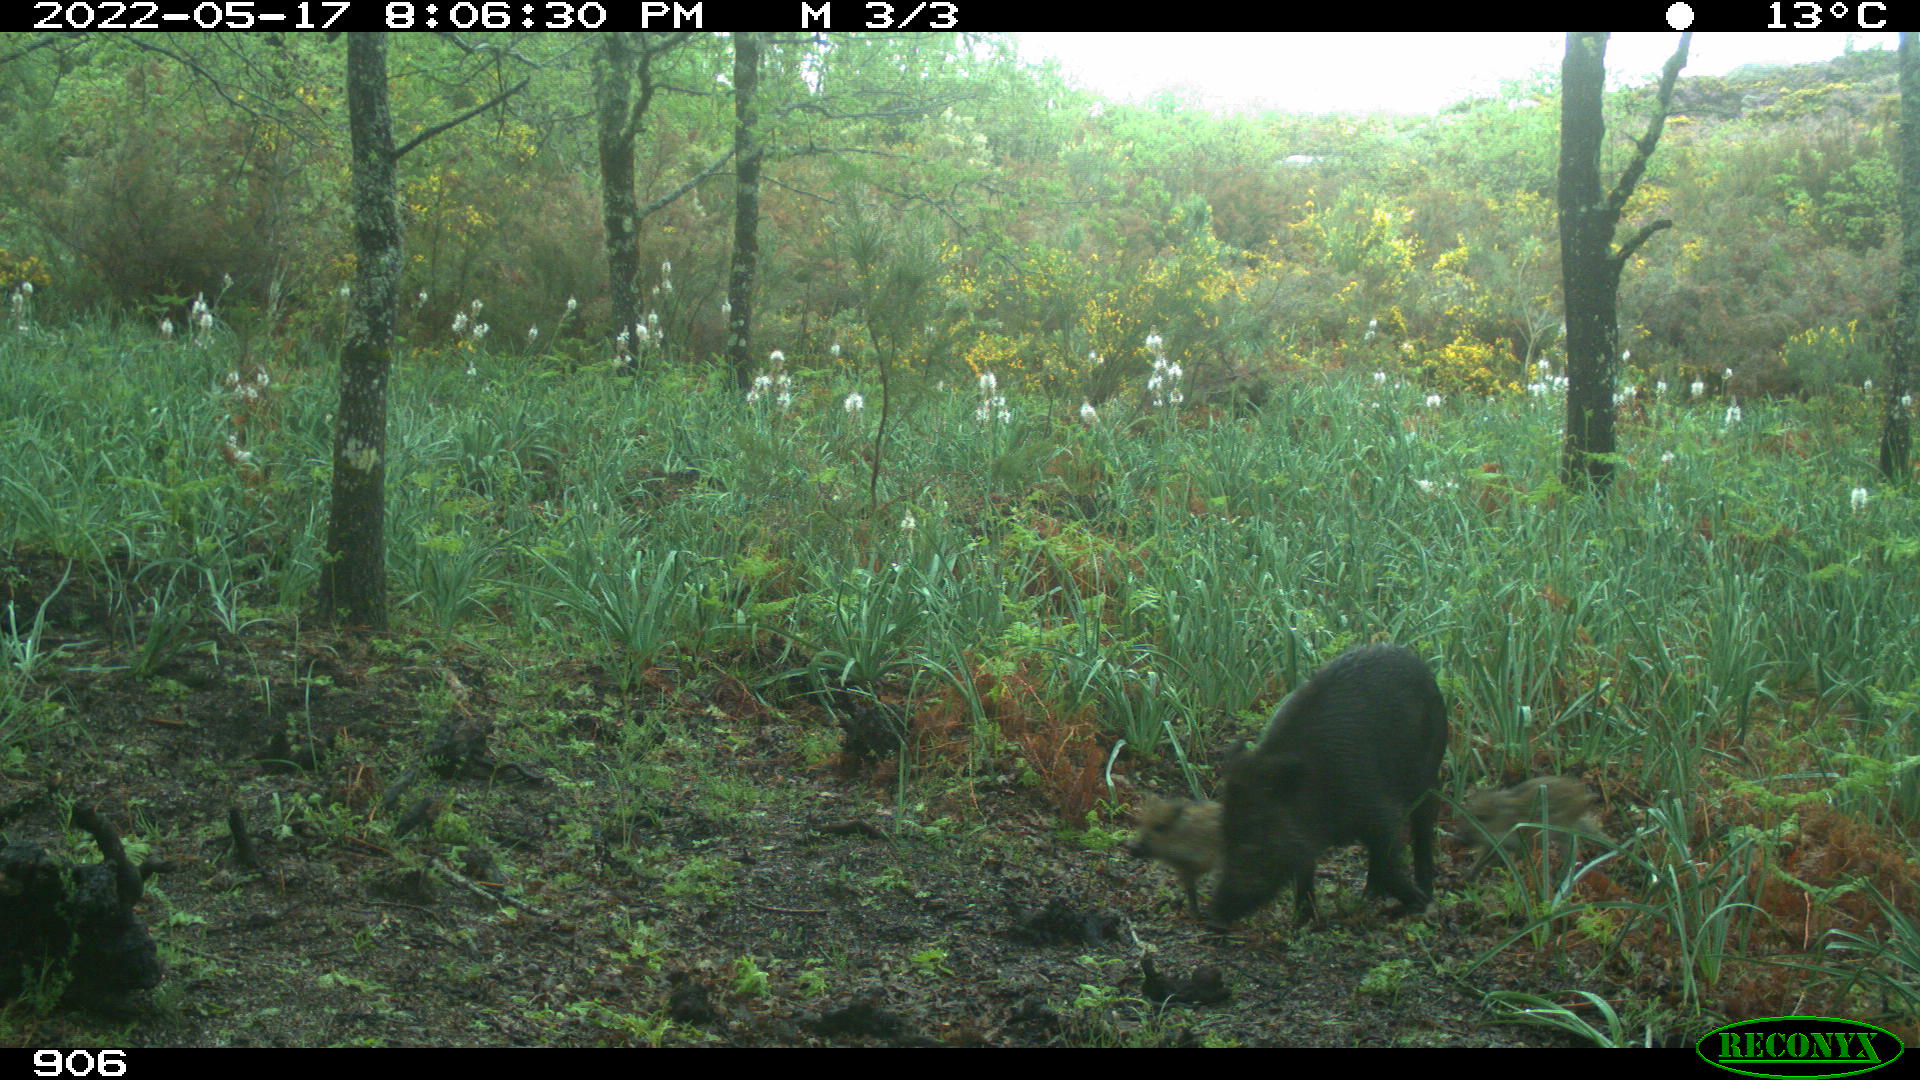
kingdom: Animalia
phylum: Chordata
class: Mammalia
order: Artiodactyla
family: Suidae
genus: Sus
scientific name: Sus scrofa
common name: Wild boar
